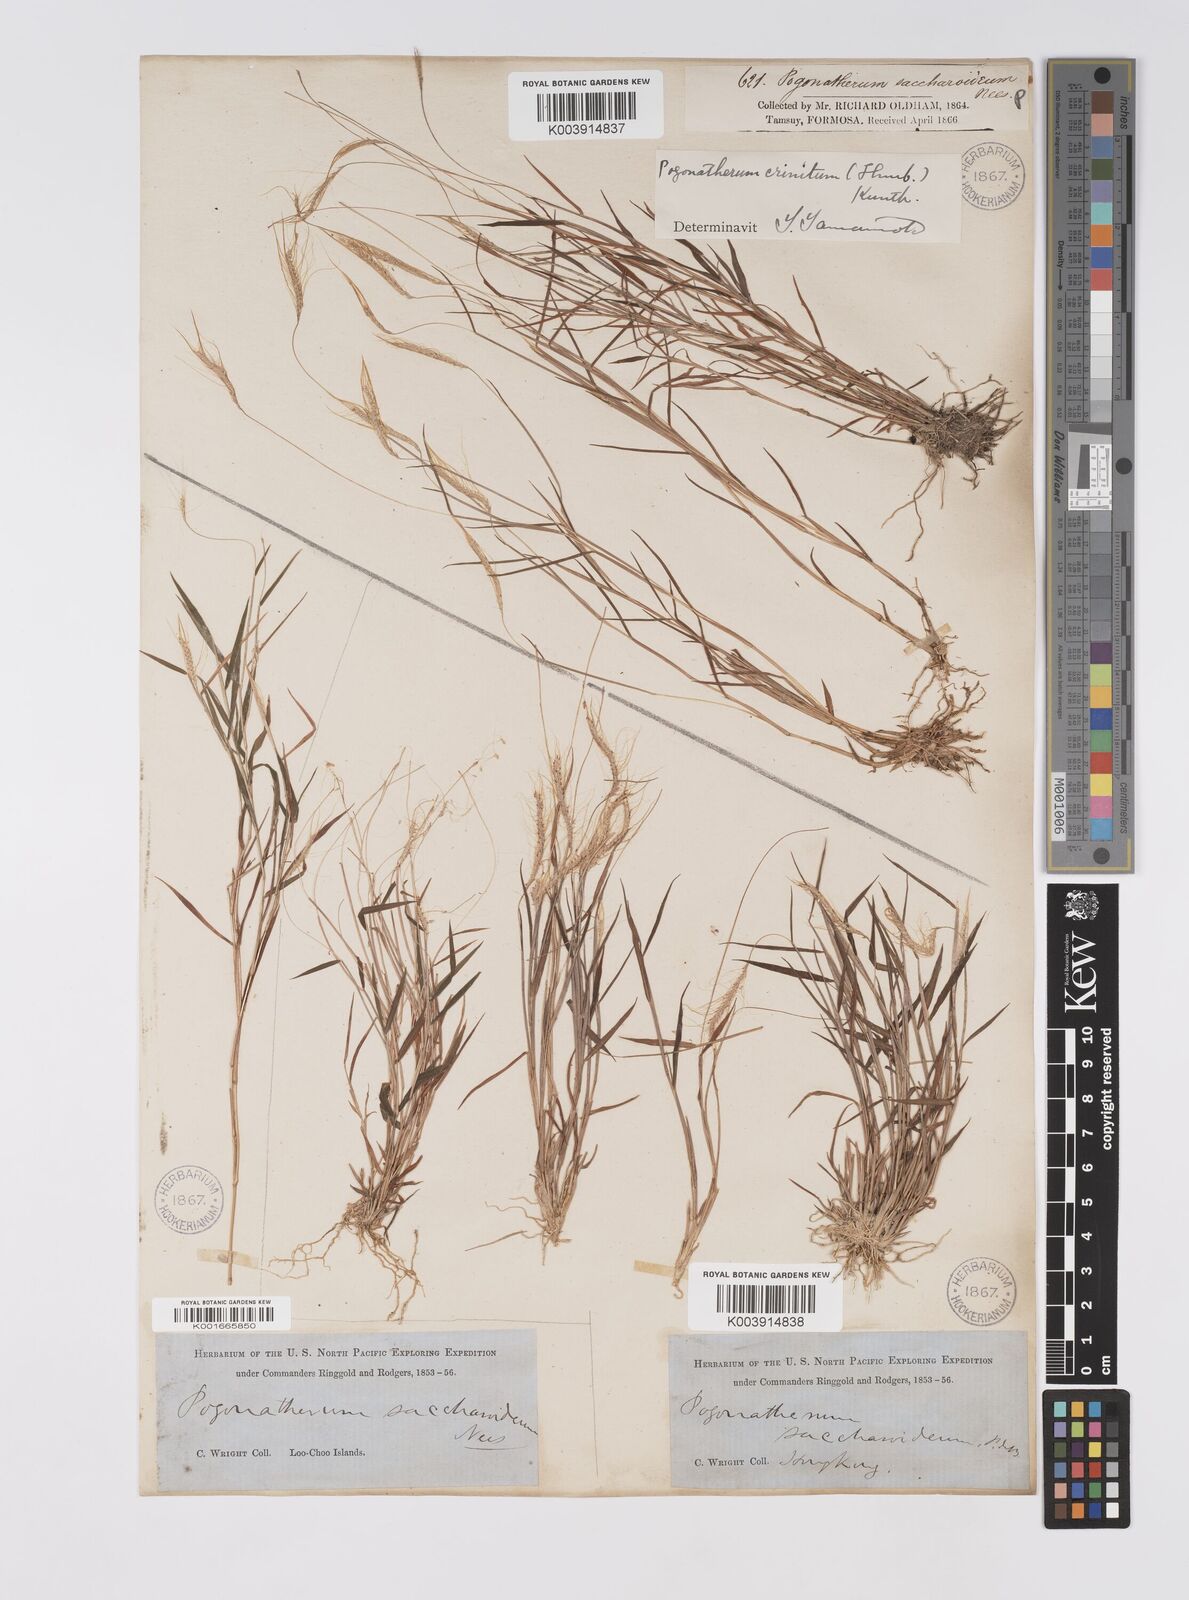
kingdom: Plantae
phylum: Tracheophyta
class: Liliopsida
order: Poales
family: Poaceae
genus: Pogonatherum
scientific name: Pogonatherum crinitum
